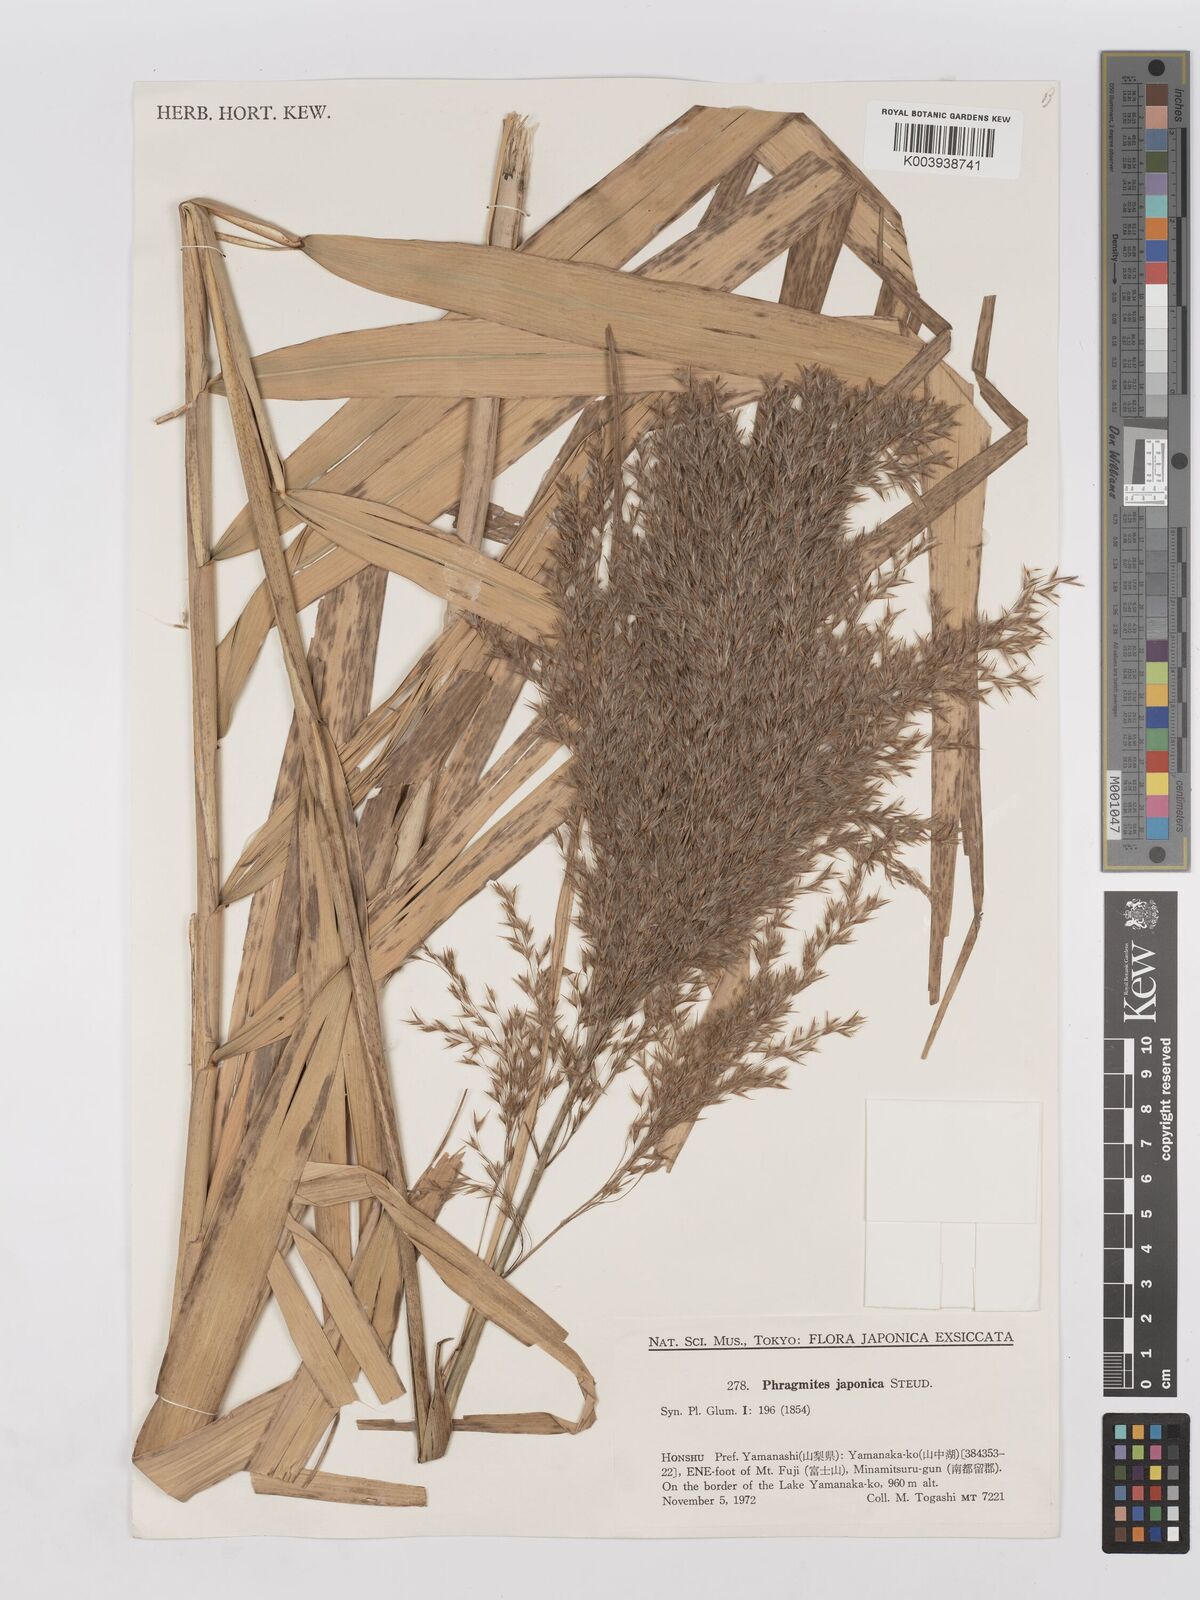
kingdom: Plantae
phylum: Tracheophyta
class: Liliopsida
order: Poales
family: Poaceae
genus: Phragmites
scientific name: Phragmites japonicus
